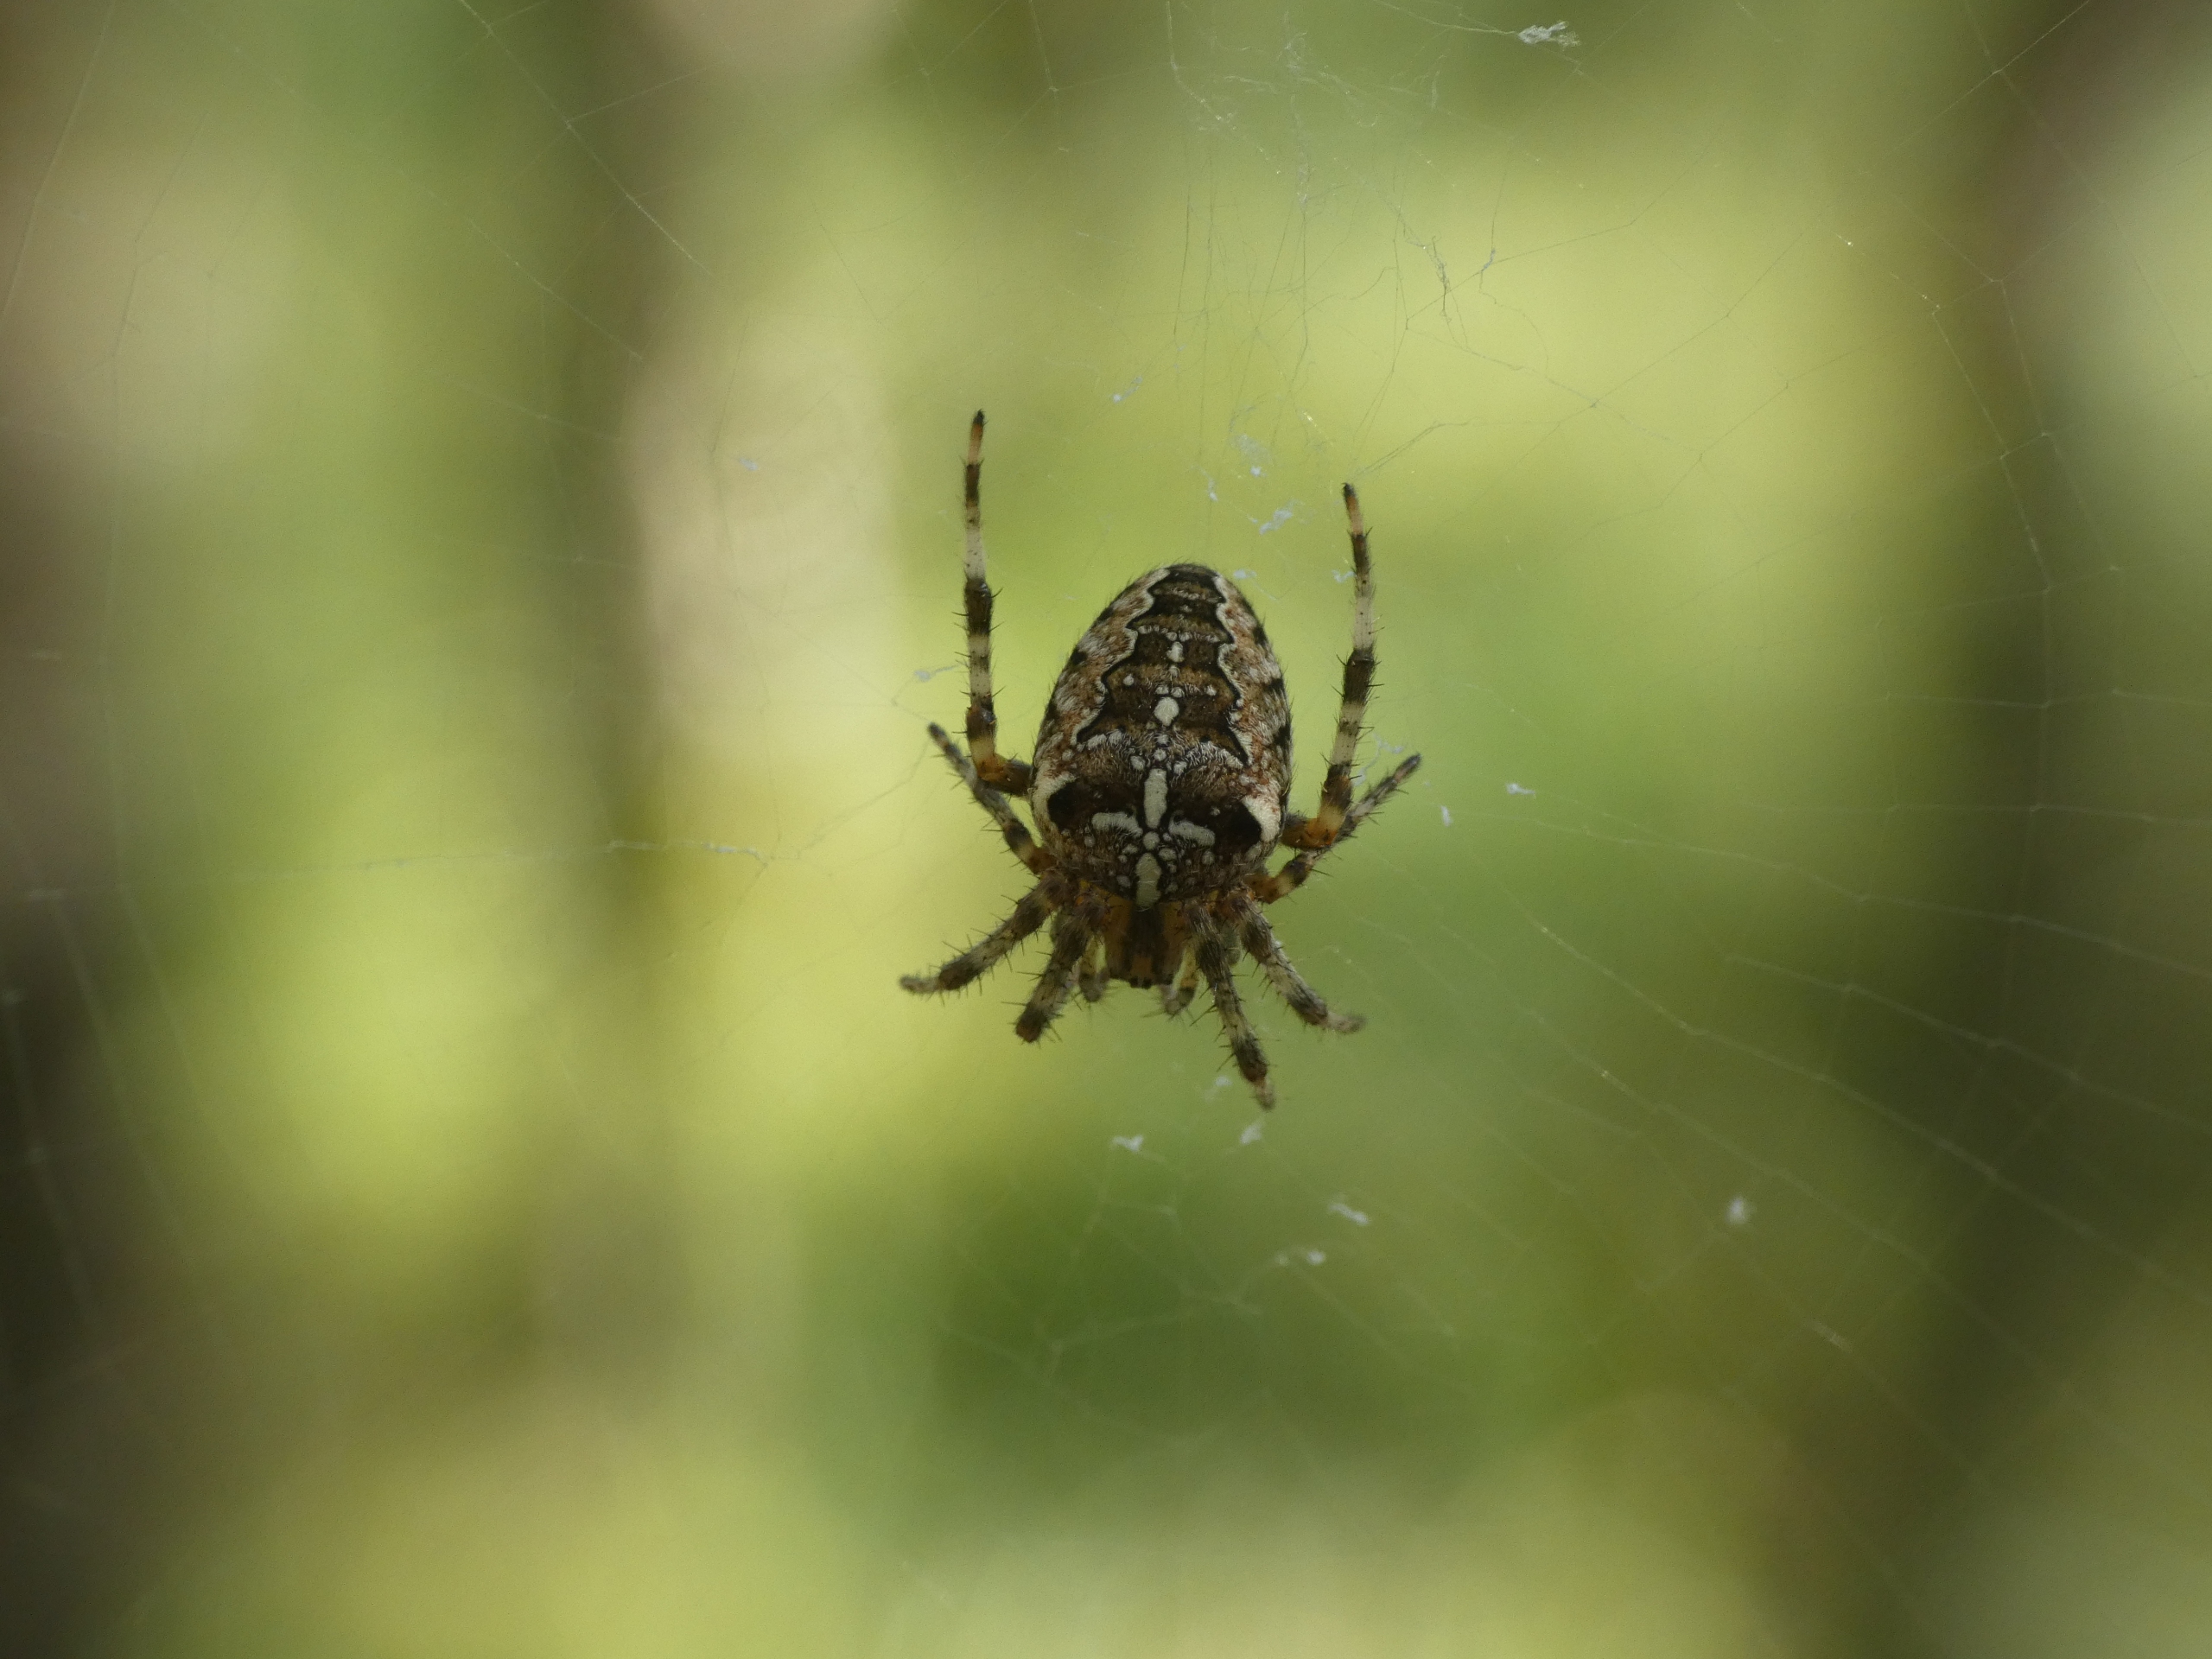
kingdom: Animalia
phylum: Arthropoda
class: Arachnida
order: Araneae
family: Araneidae
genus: Araneus
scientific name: Araneus diadematus
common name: Korsedderkop
